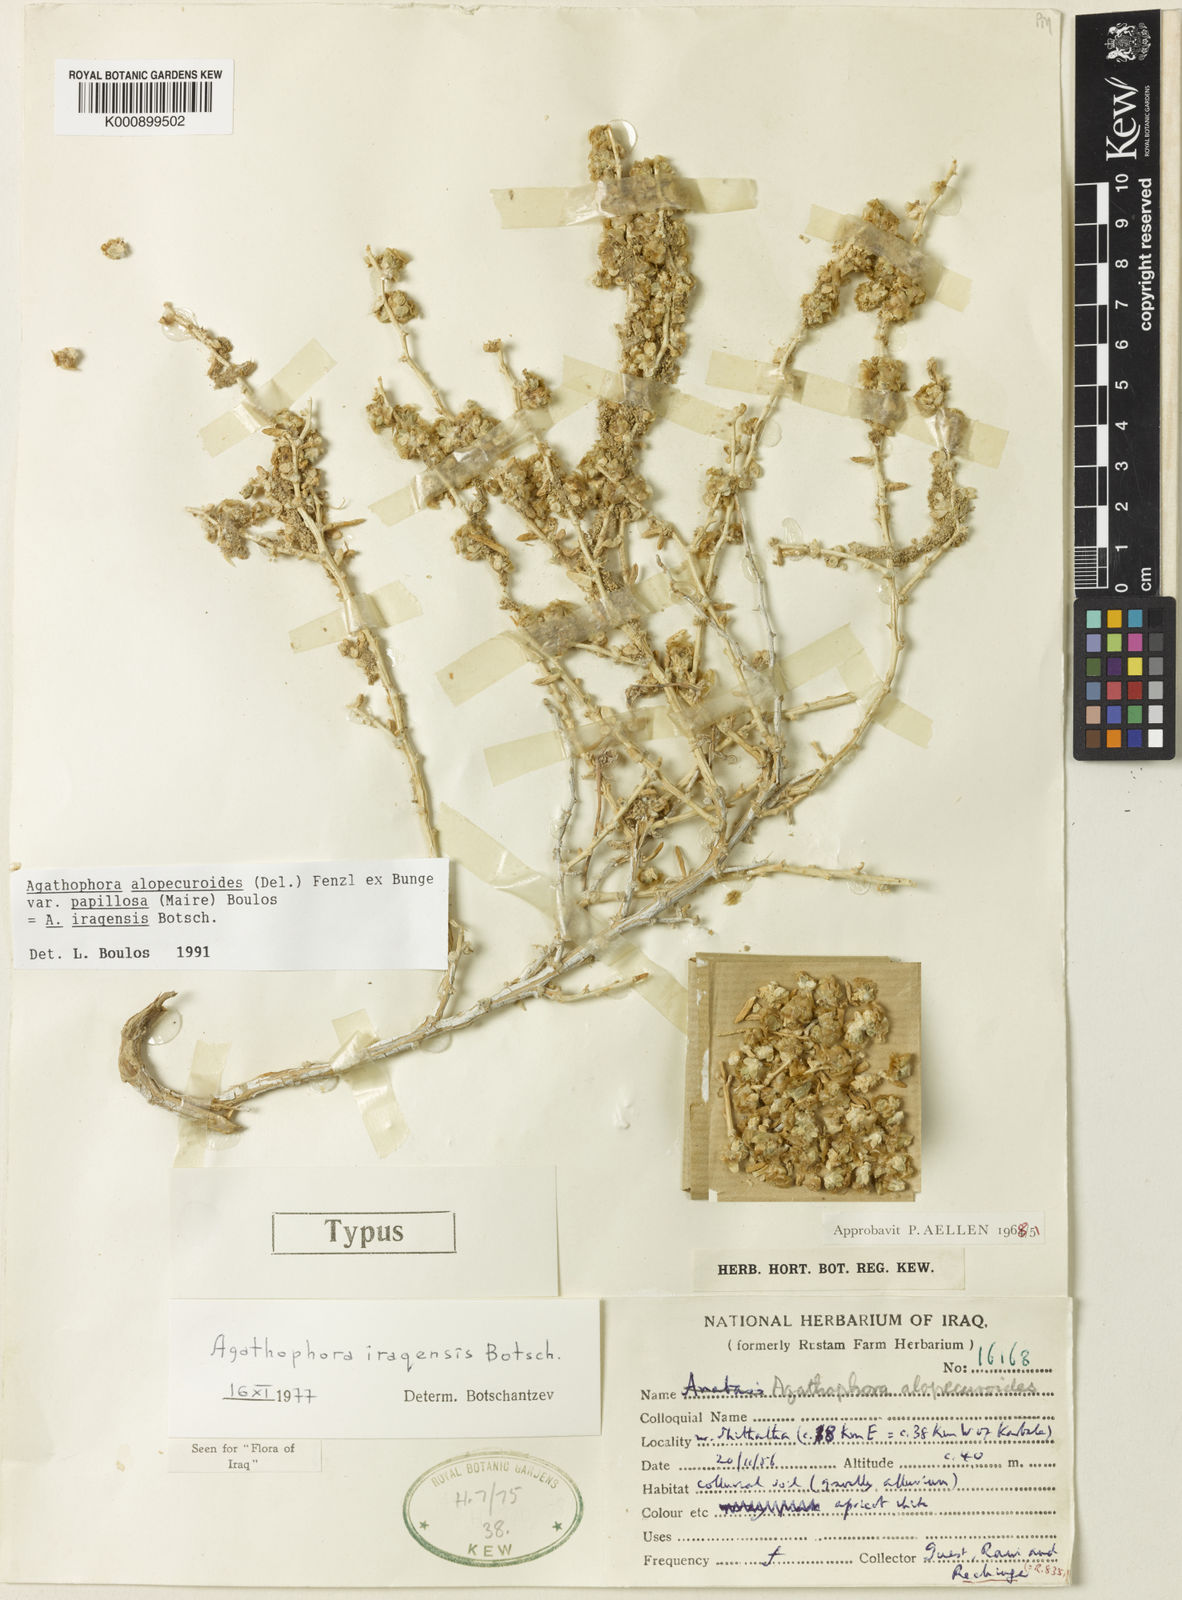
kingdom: Plantae
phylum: Tracheophyta
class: Magnoliopsida
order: Caryophyllales
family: Amaranthaceae
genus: Halogeton
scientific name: Halogeton alopecuroides
